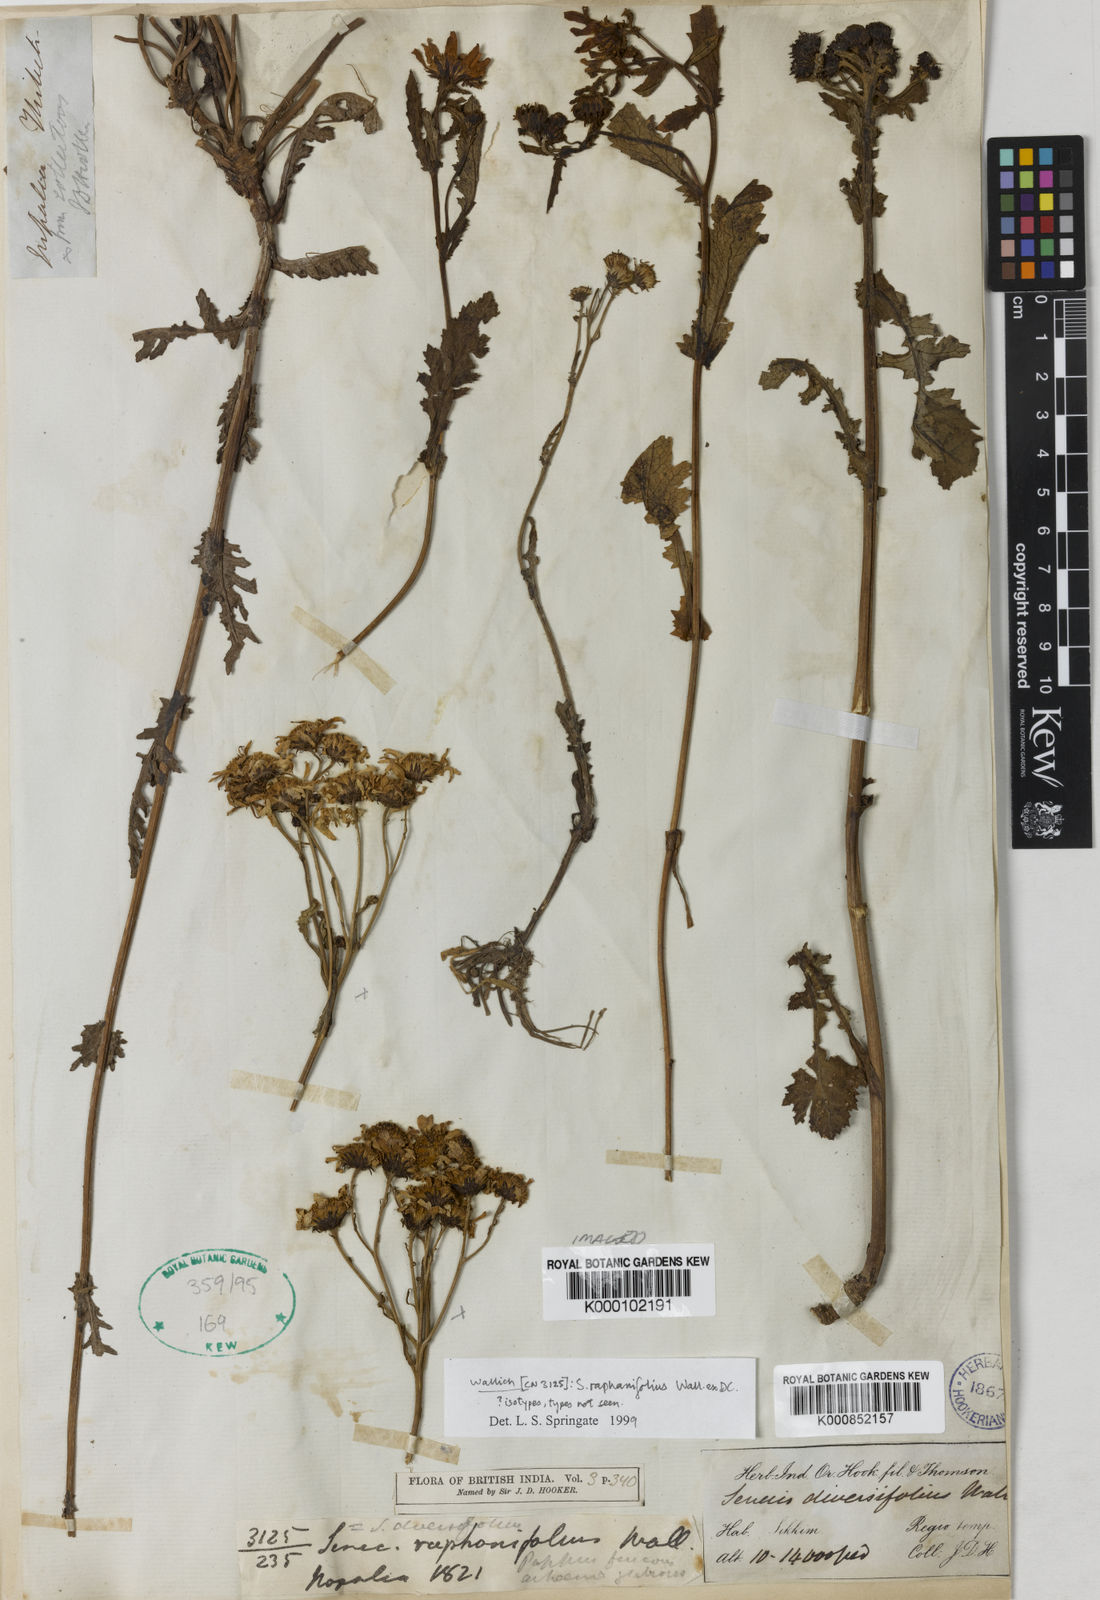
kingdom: Plantae
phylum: Tracheophyta
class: Magnoliopsida
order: Asterales
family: Asteraceae
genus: Jacobaea
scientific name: Jacobaea raphanifolia
